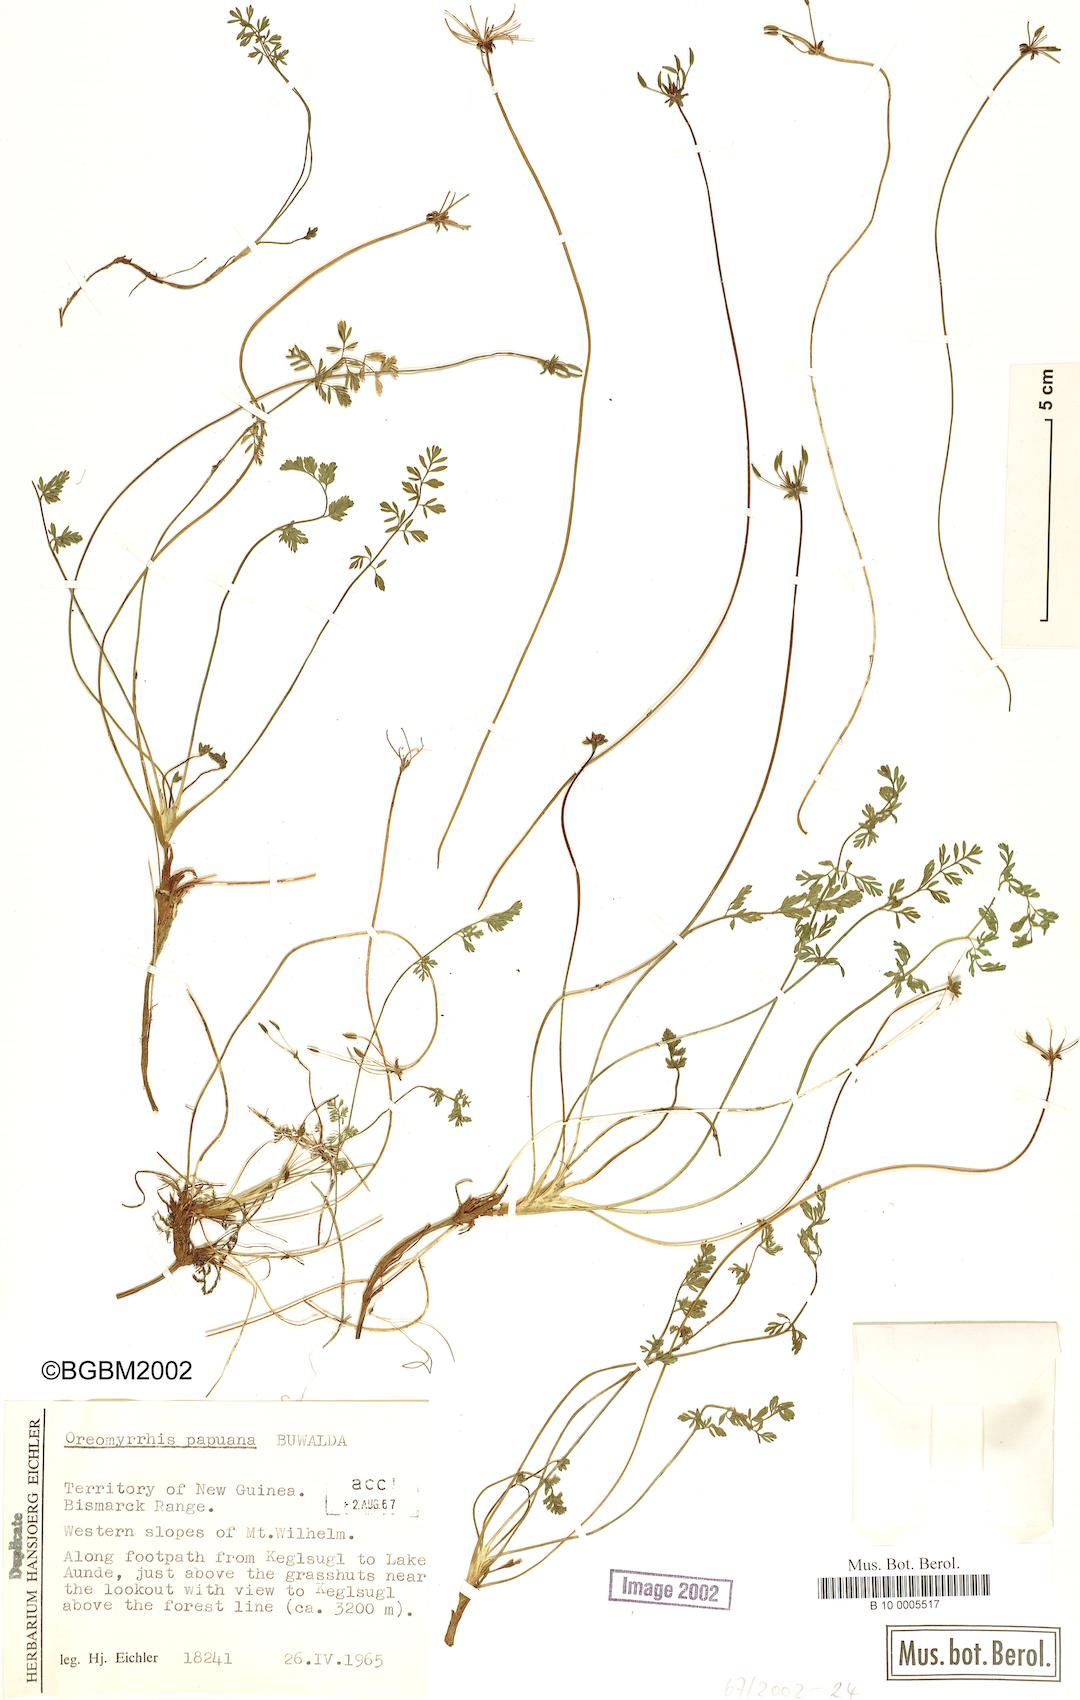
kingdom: Plantae
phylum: Tracheophyta
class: Magnoliopsida
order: Apiales
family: Apiaceae
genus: Chaerophyllum
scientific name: Chaerophyllum papuanum
